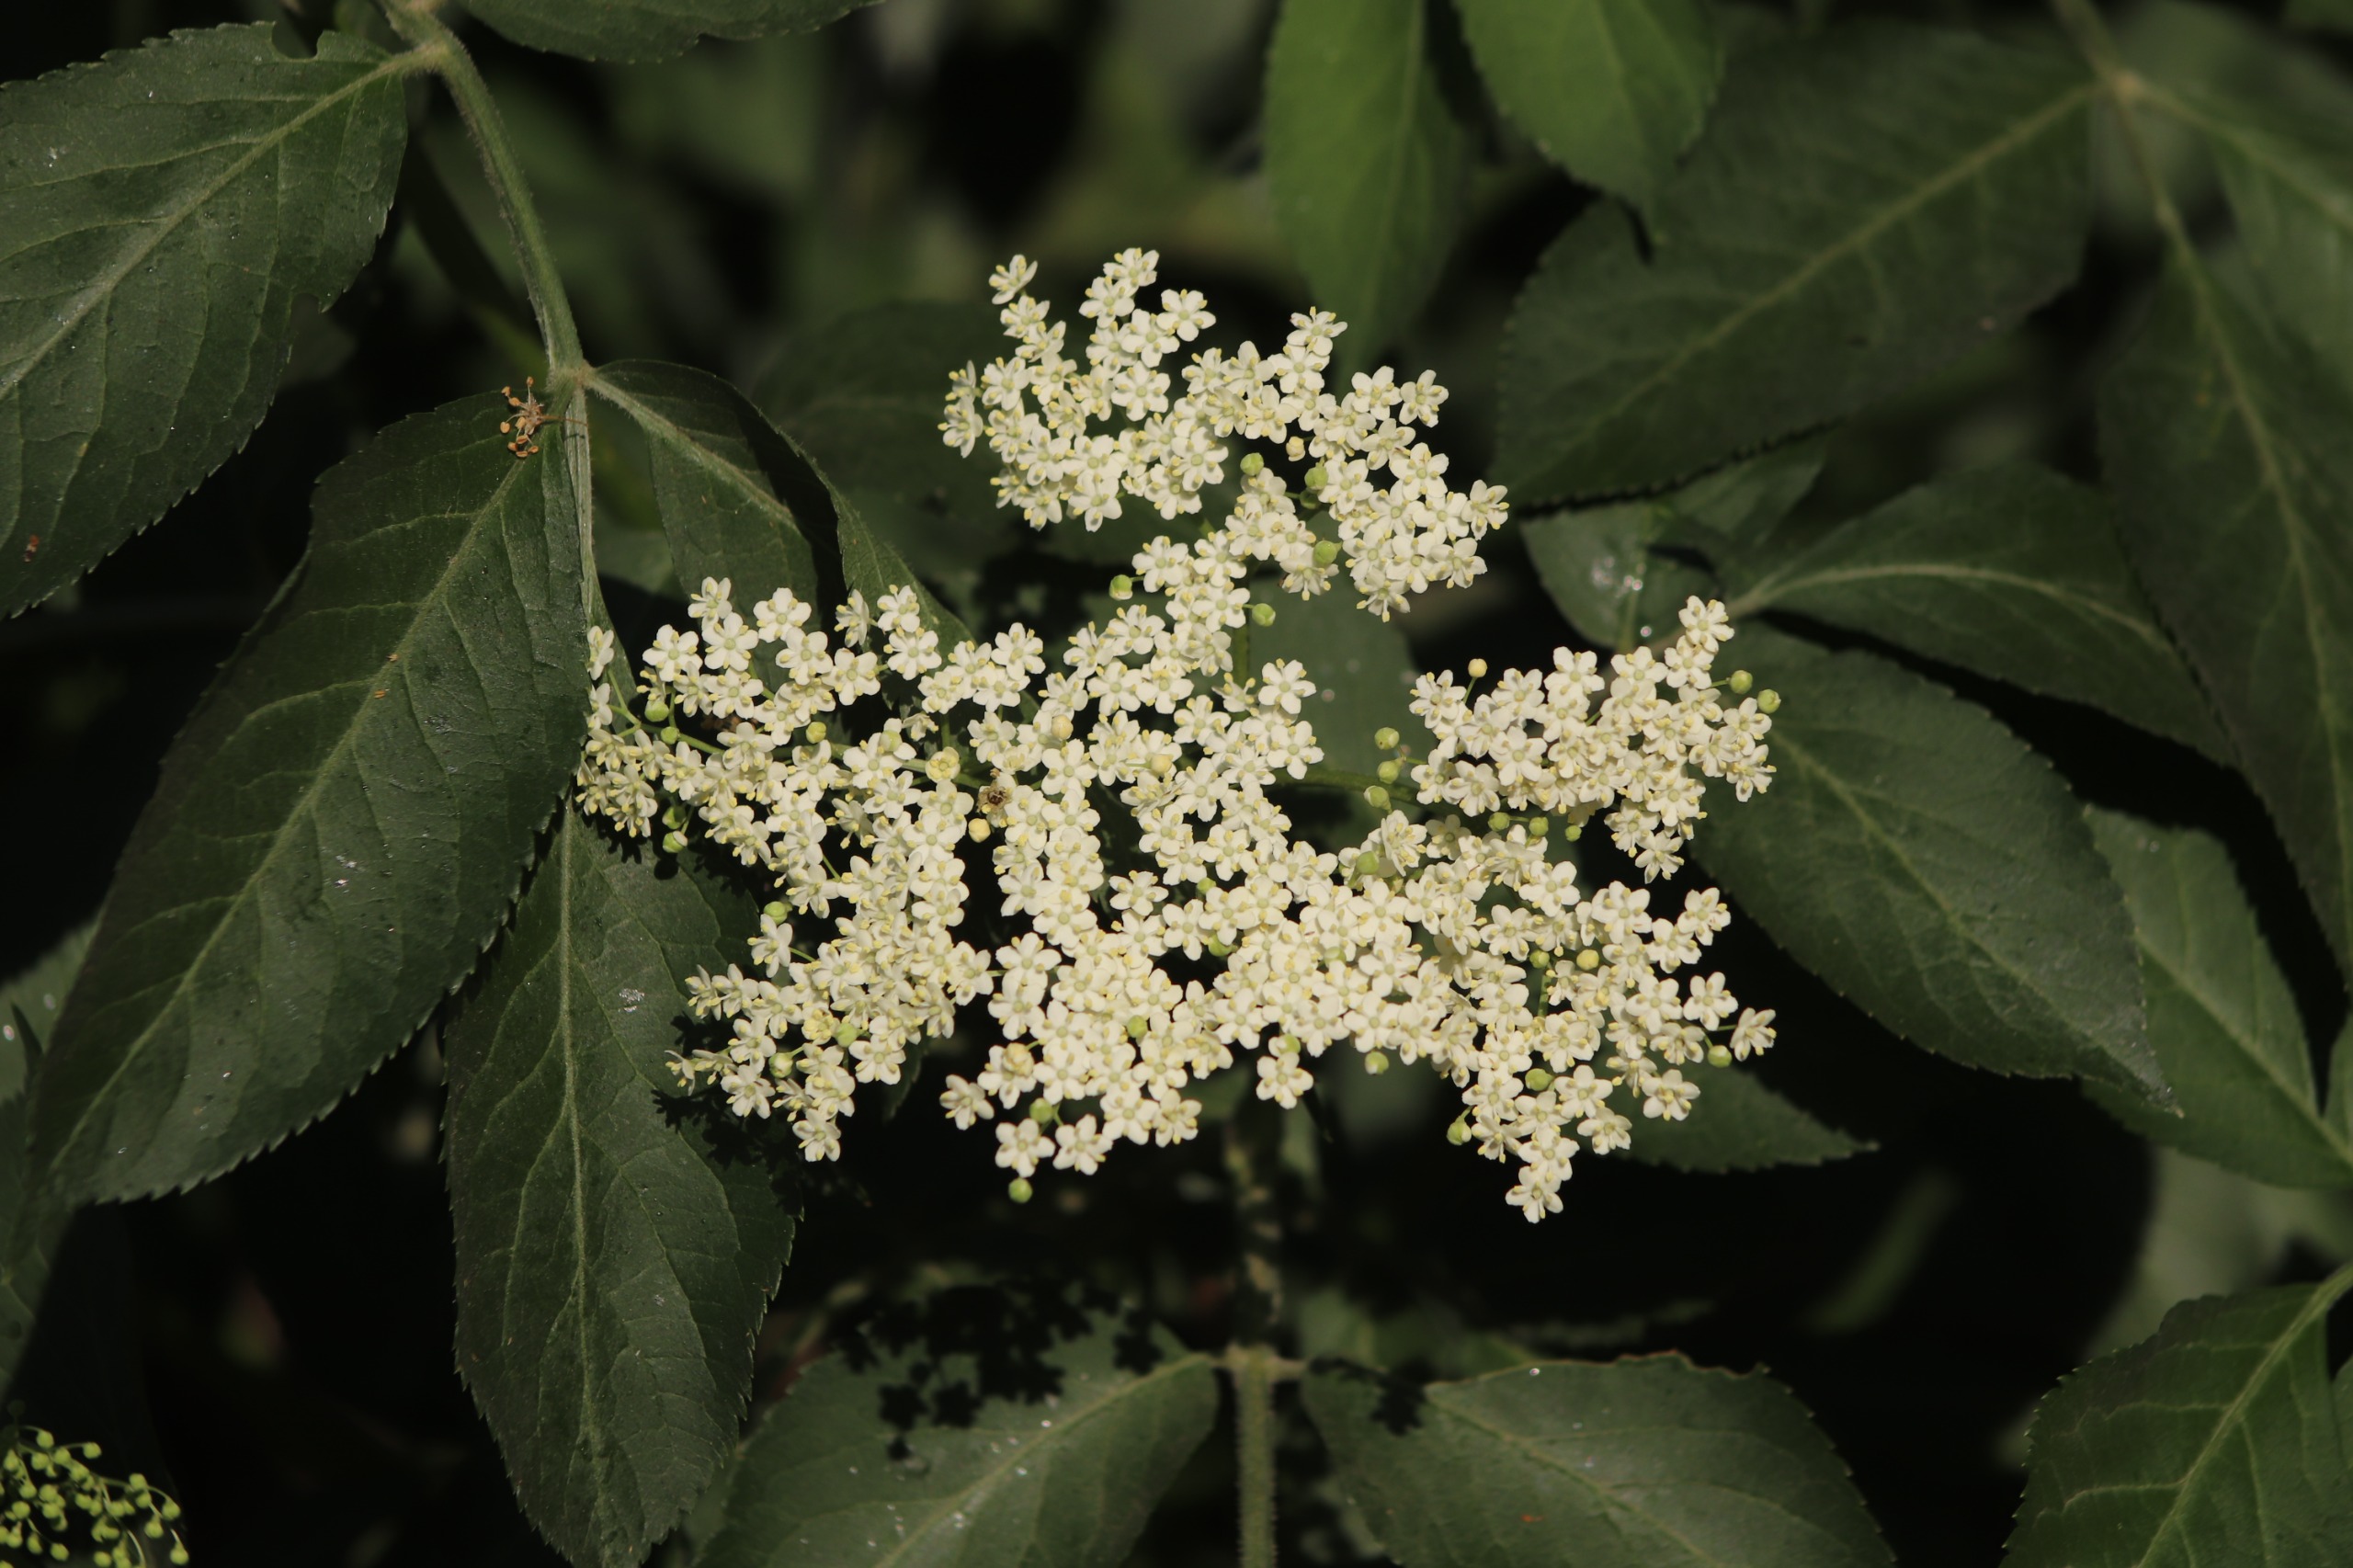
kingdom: Plantae
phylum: Tracheophyta
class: Magnoliopsida
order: Dipsacales
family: Viburnaceae
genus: Sambucus
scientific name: Sambucus nigra
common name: Almindelig hyld
